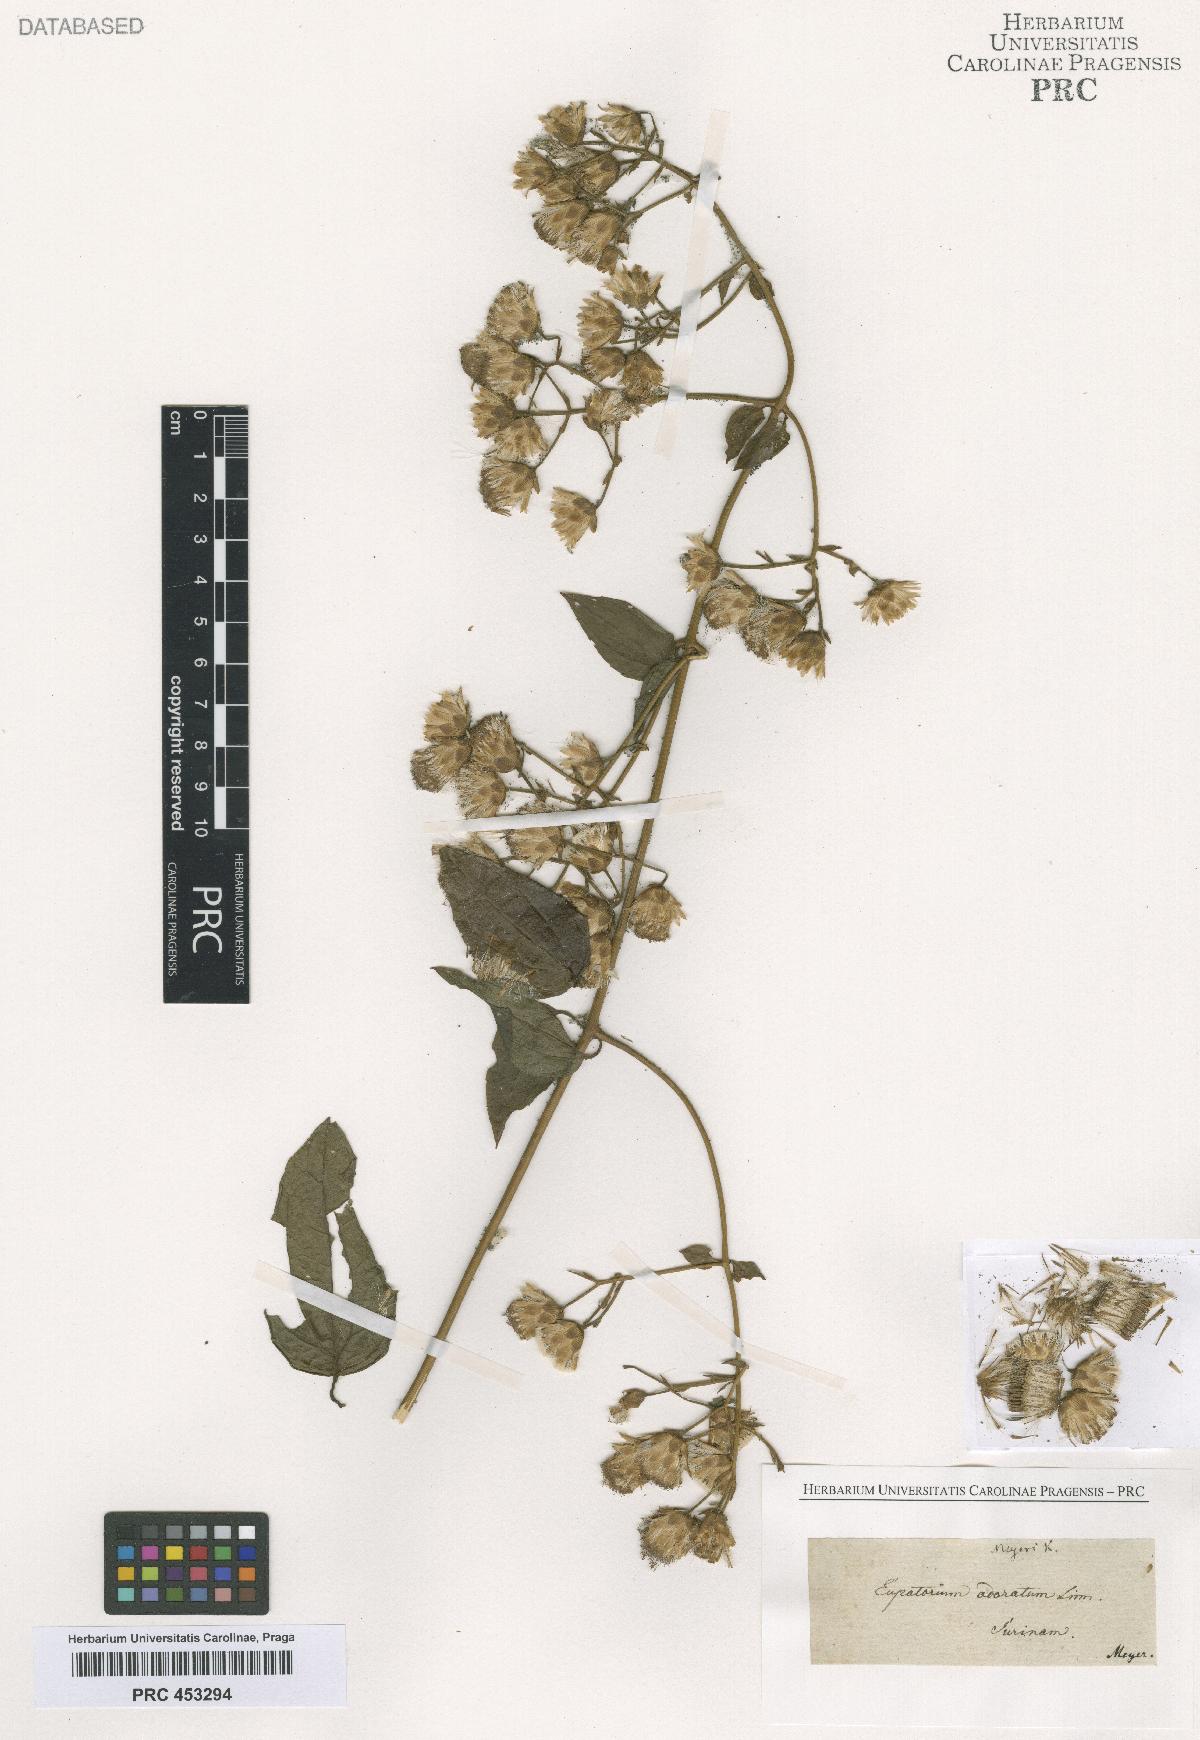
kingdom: Plantae
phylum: Tracheophyta
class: Magnoliopsida
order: Asterales
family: Asteraceae
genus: Chromolaena
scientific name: Chromolaena odorata
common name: Siamweed
